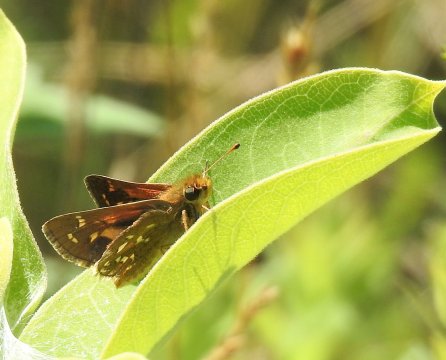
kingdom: Animalia
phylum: Arthropoda
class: Insecta
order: Lepidoptera
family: Hesperiidae
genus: Hesperia
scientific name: Hesperia comma
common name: Common Branded Skipper
